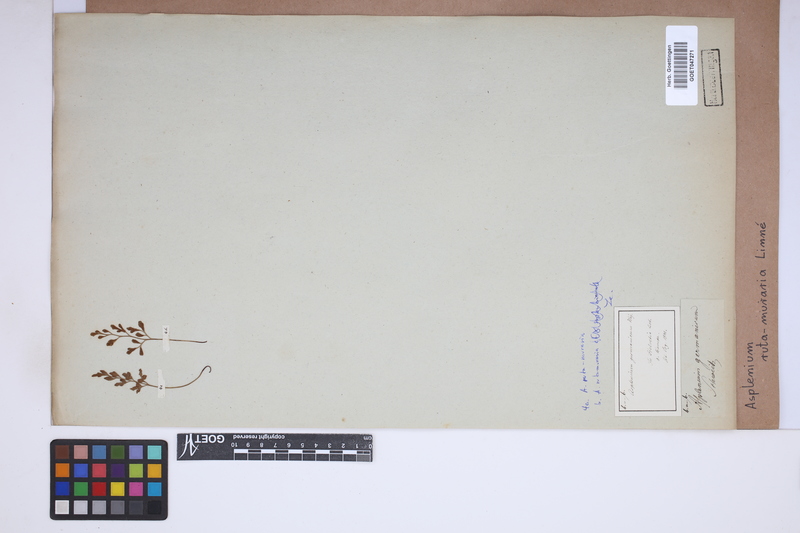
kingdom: Plantae
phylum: Tracheophyta
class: Polypodiopsida
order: Polypodiales
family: Aspleniaceae
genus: Asplenium
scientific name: Asplenium ruta-muraria
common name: Wall-rue
